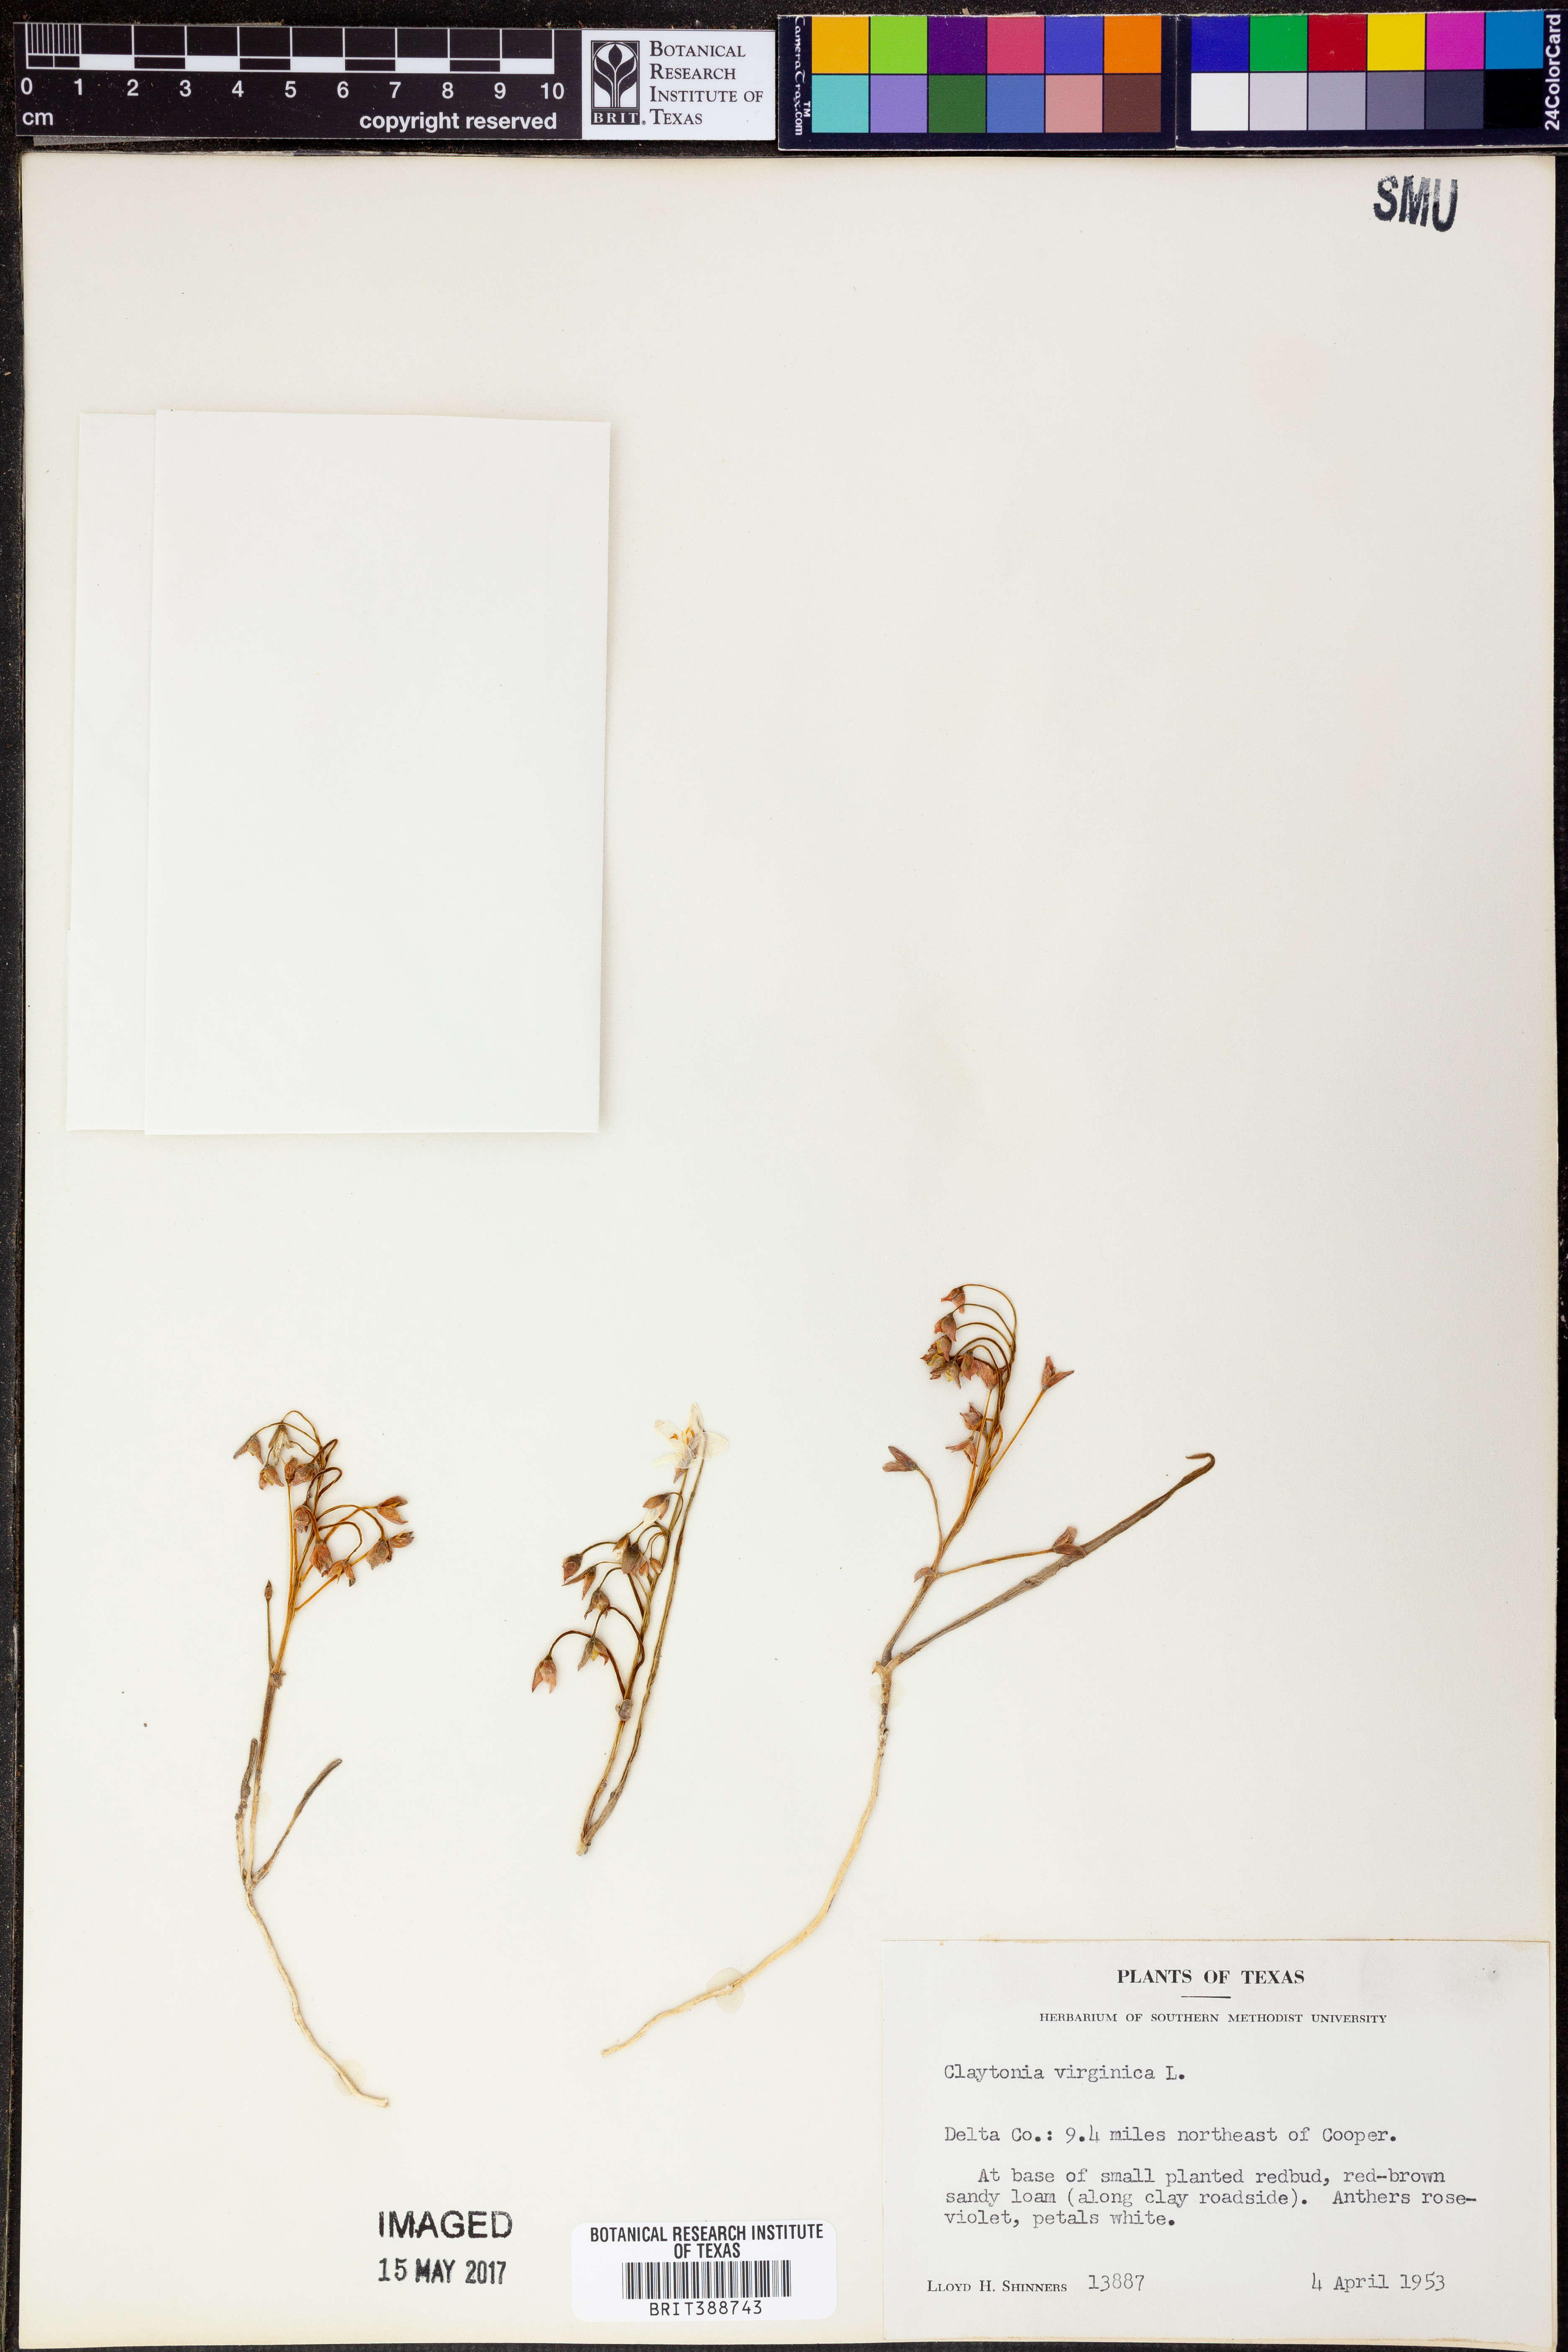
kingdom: Plantae
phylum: Tracheophyta
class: Magnoliopsida
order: Caryophyllales
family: Montiaceae
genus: Claytonia
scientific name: Claytonia virginica
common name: Virginia springbeauty
